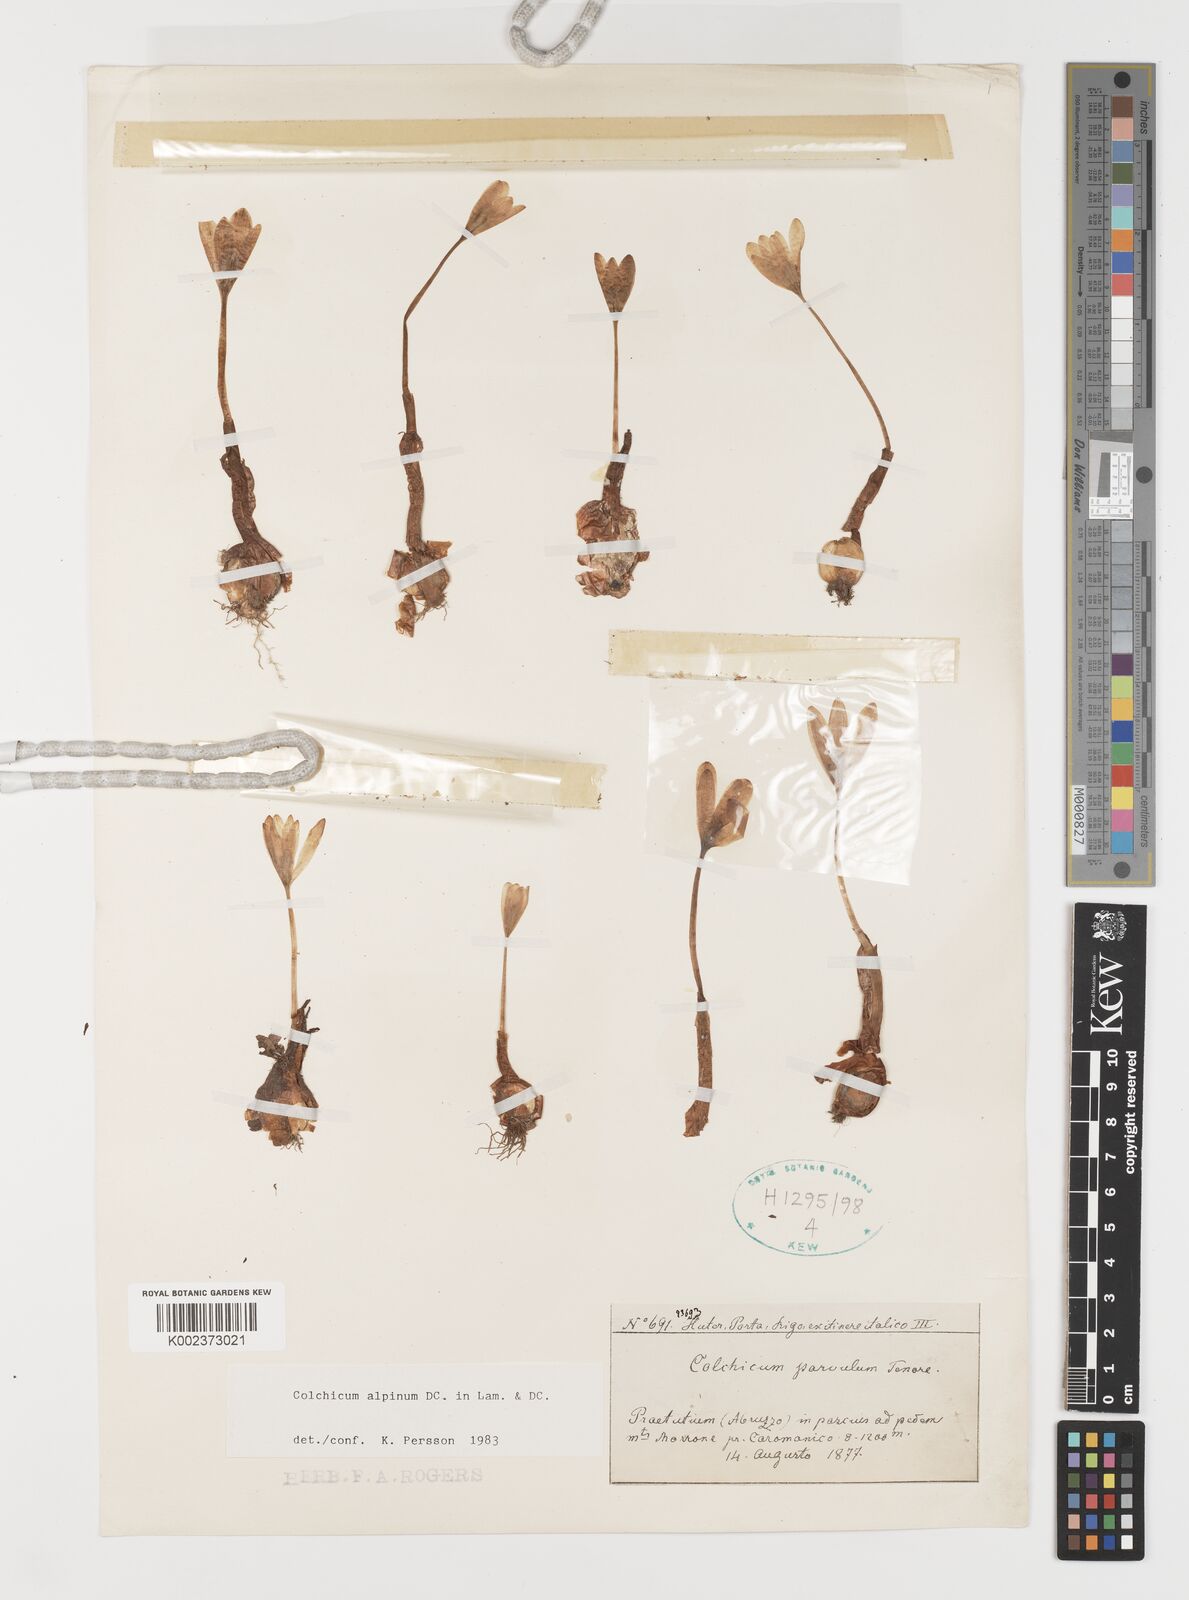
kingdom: Plantae
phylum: Tracheophyta
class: Liliopsida
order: Liliales
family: Colchicaceae
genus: Colchicum
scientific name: Colchicum alpinum
